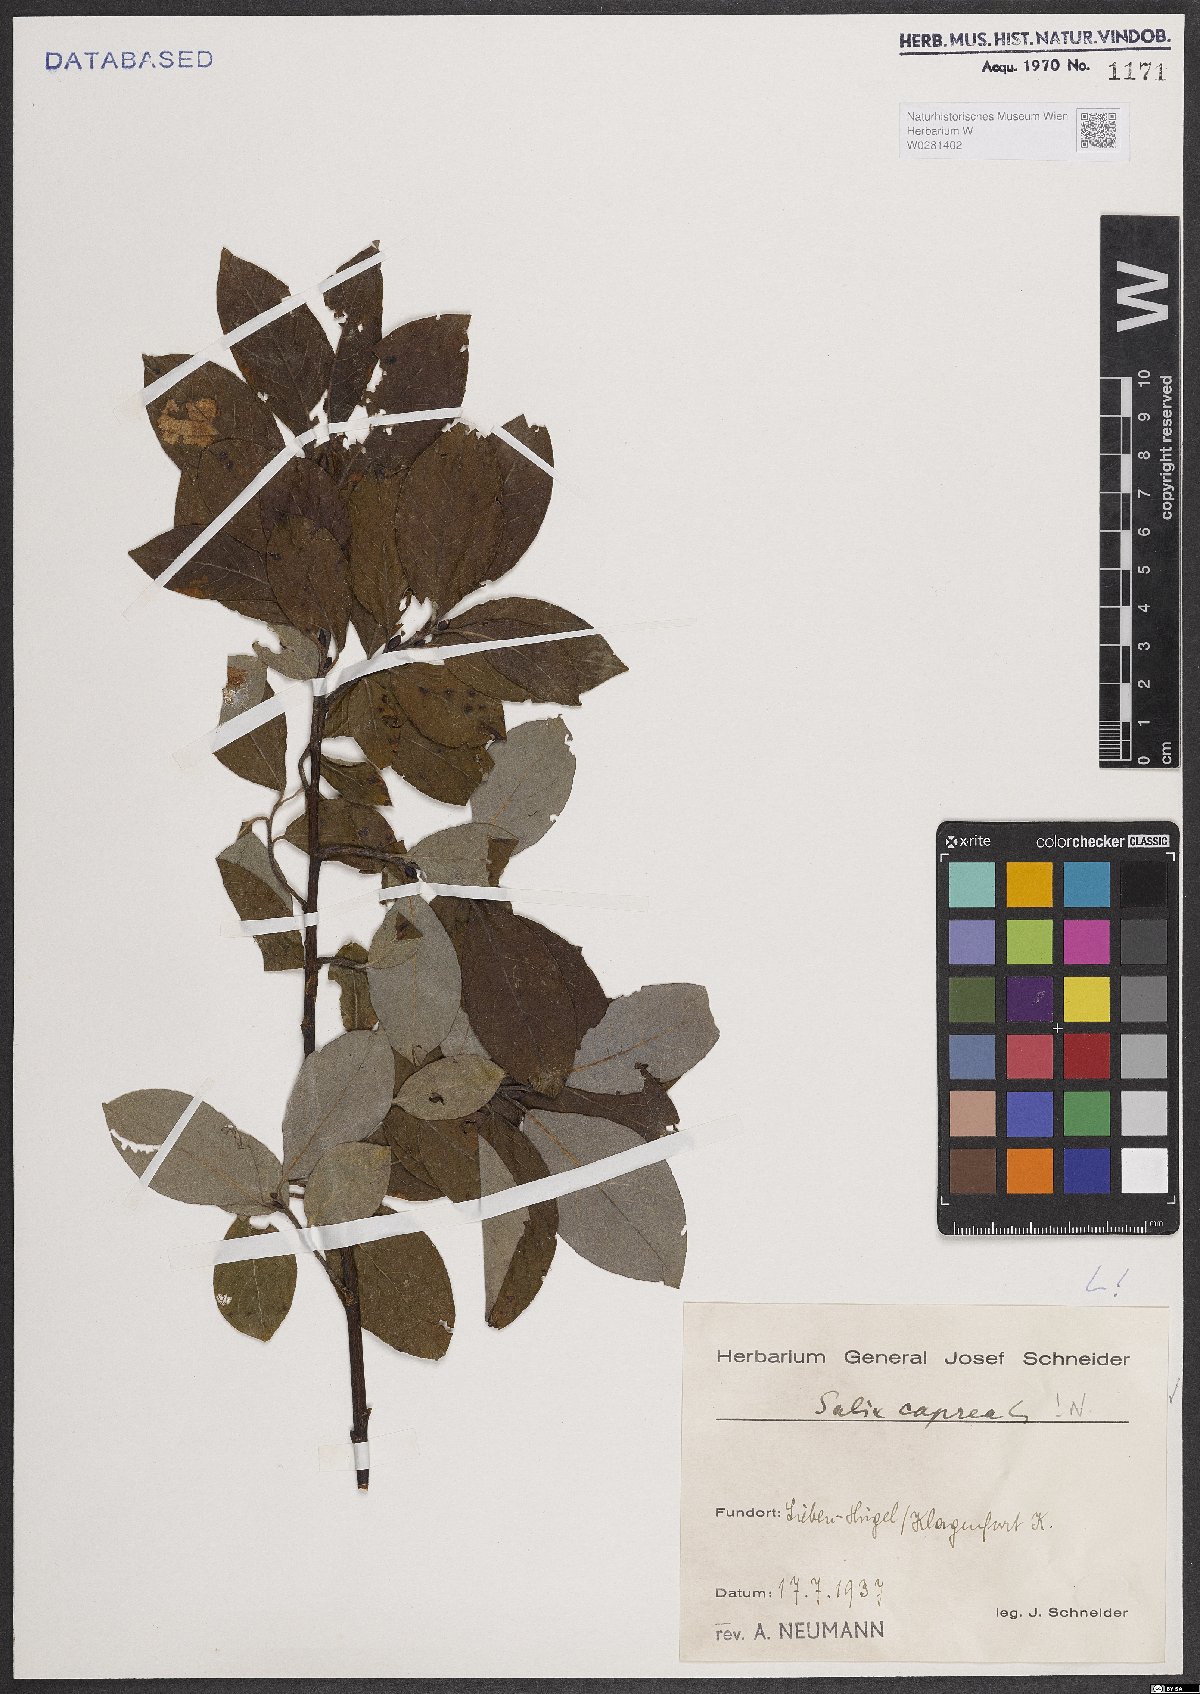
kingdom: Plantae
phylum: Tracheophyta
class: Magnoliopsida
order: Malpighiales
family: Salicaceae
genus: Salix
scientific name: Salix caprea
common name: Goat willow
